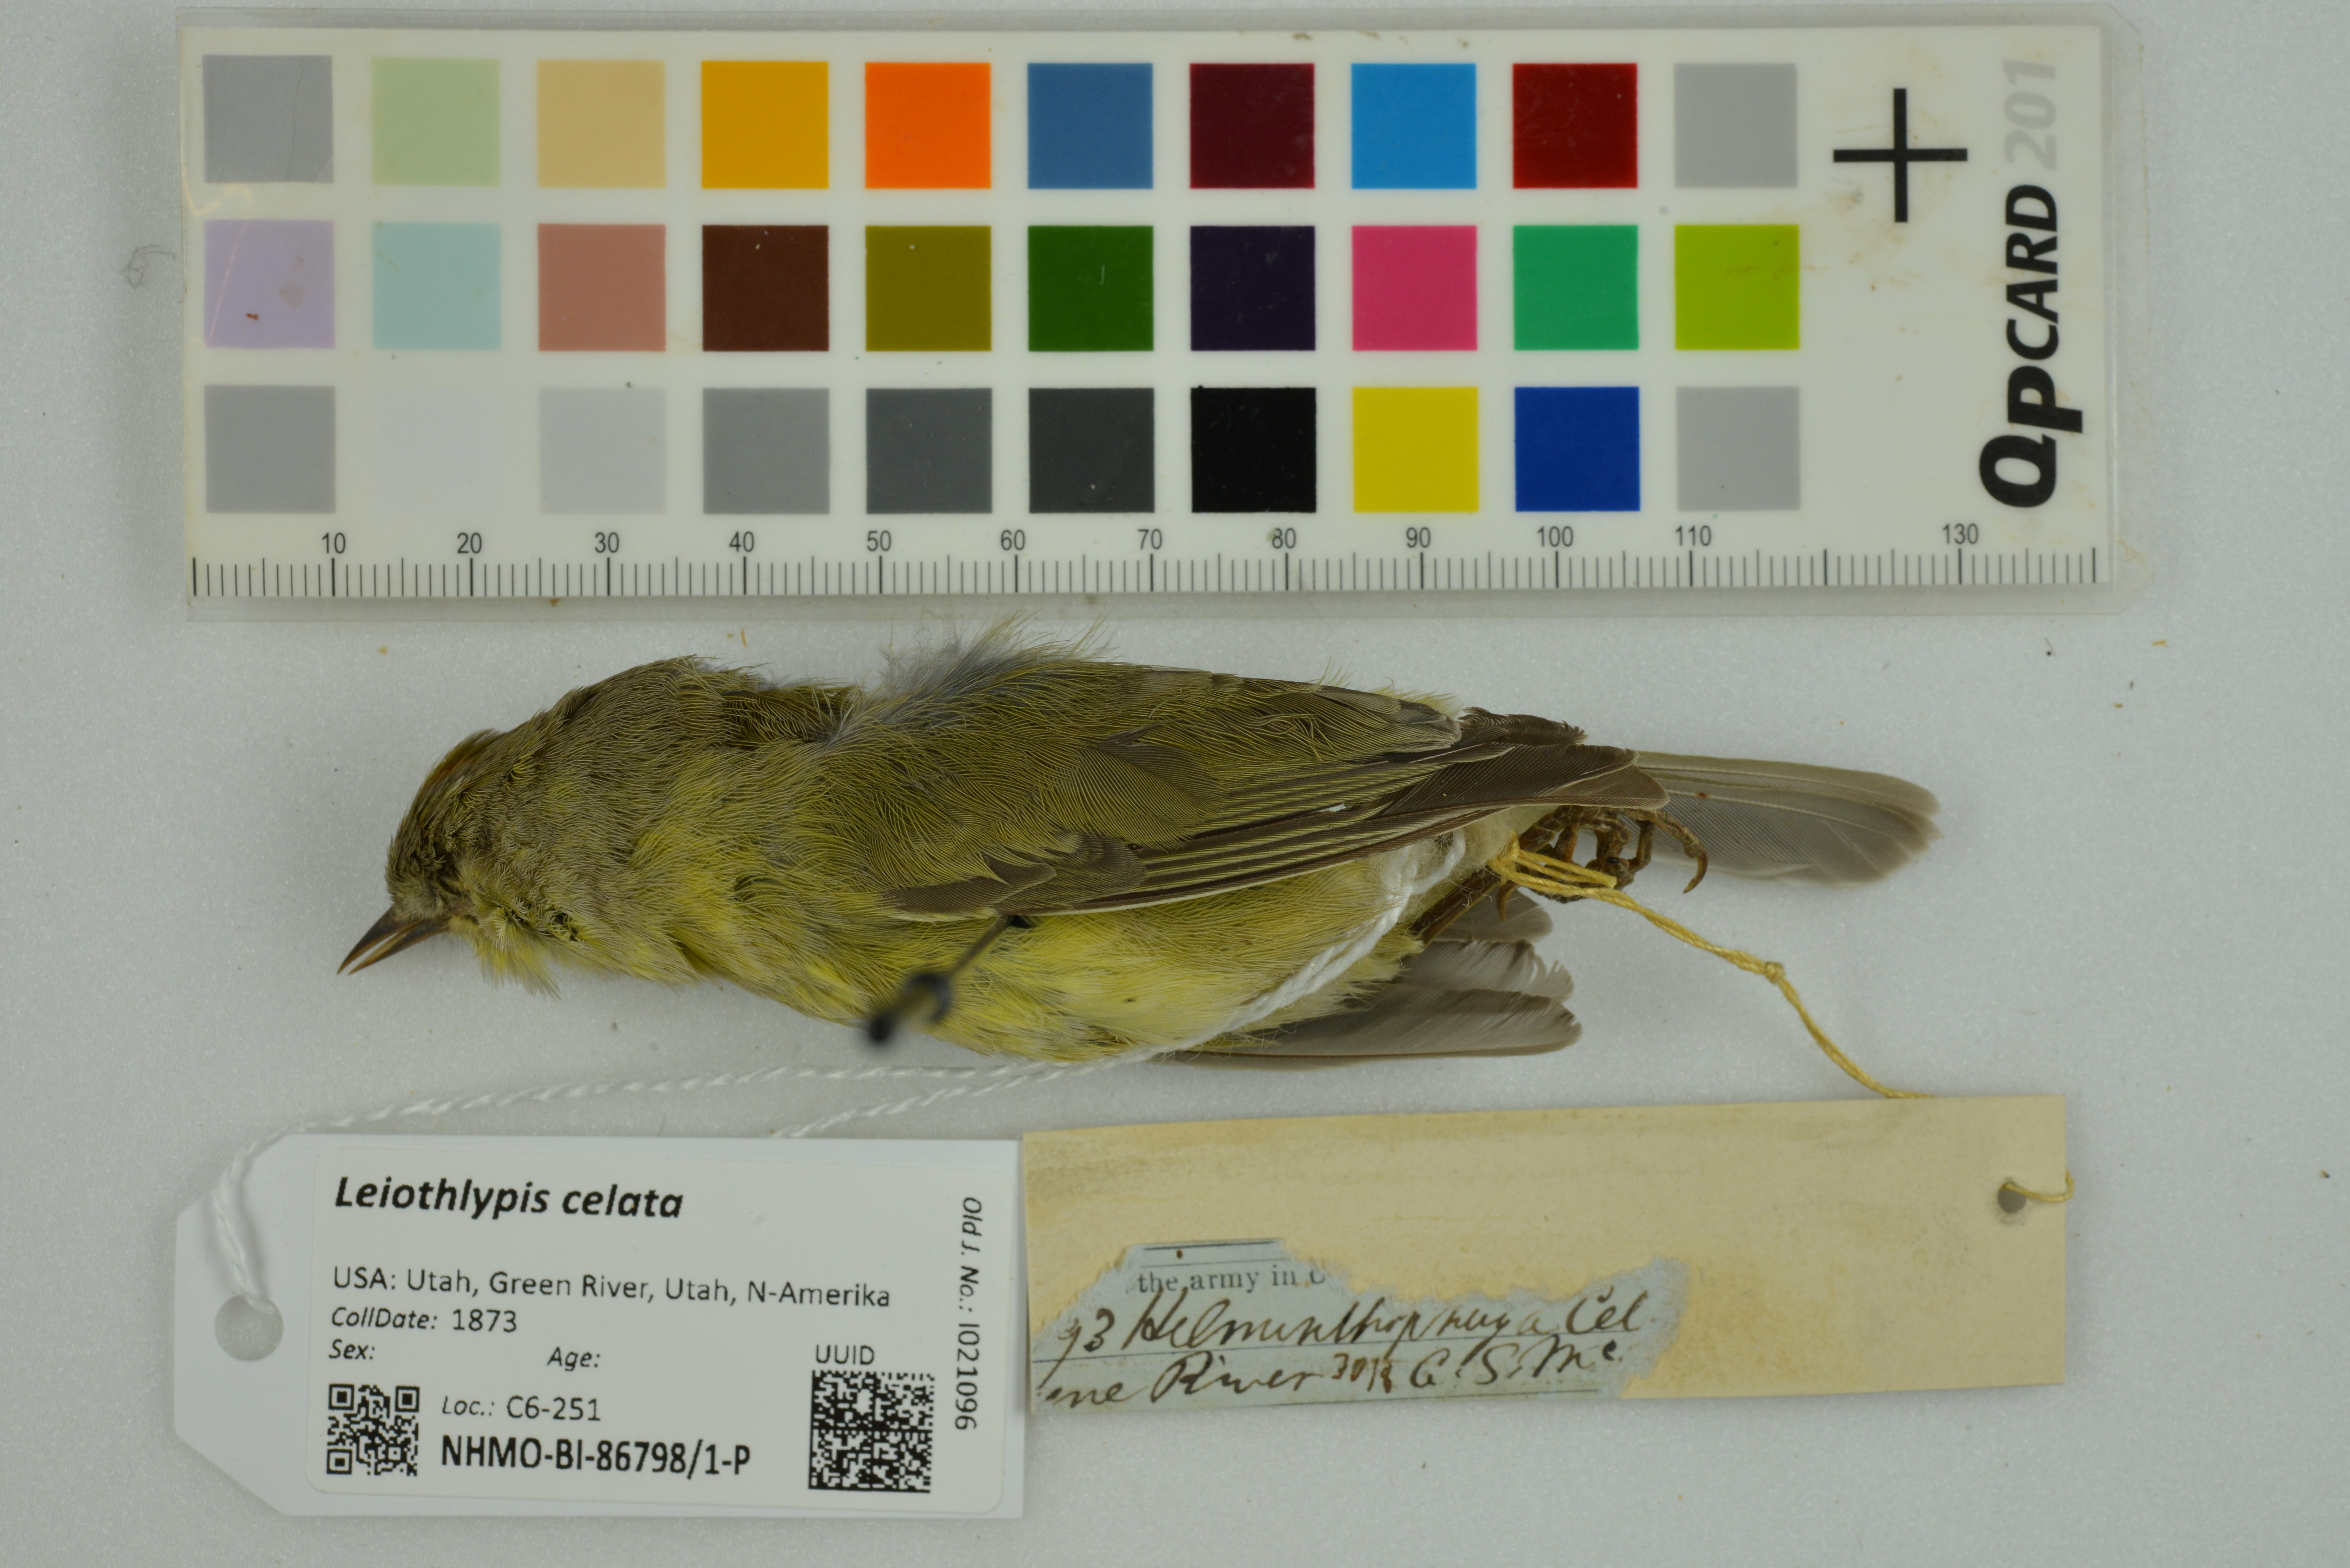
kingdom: Animalia
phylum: Chordata
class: Aves
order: Passeriformes
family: Parulidae
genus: Leiothlypis
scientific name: Leiothlypis celata
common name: Orange-crowned warbler
